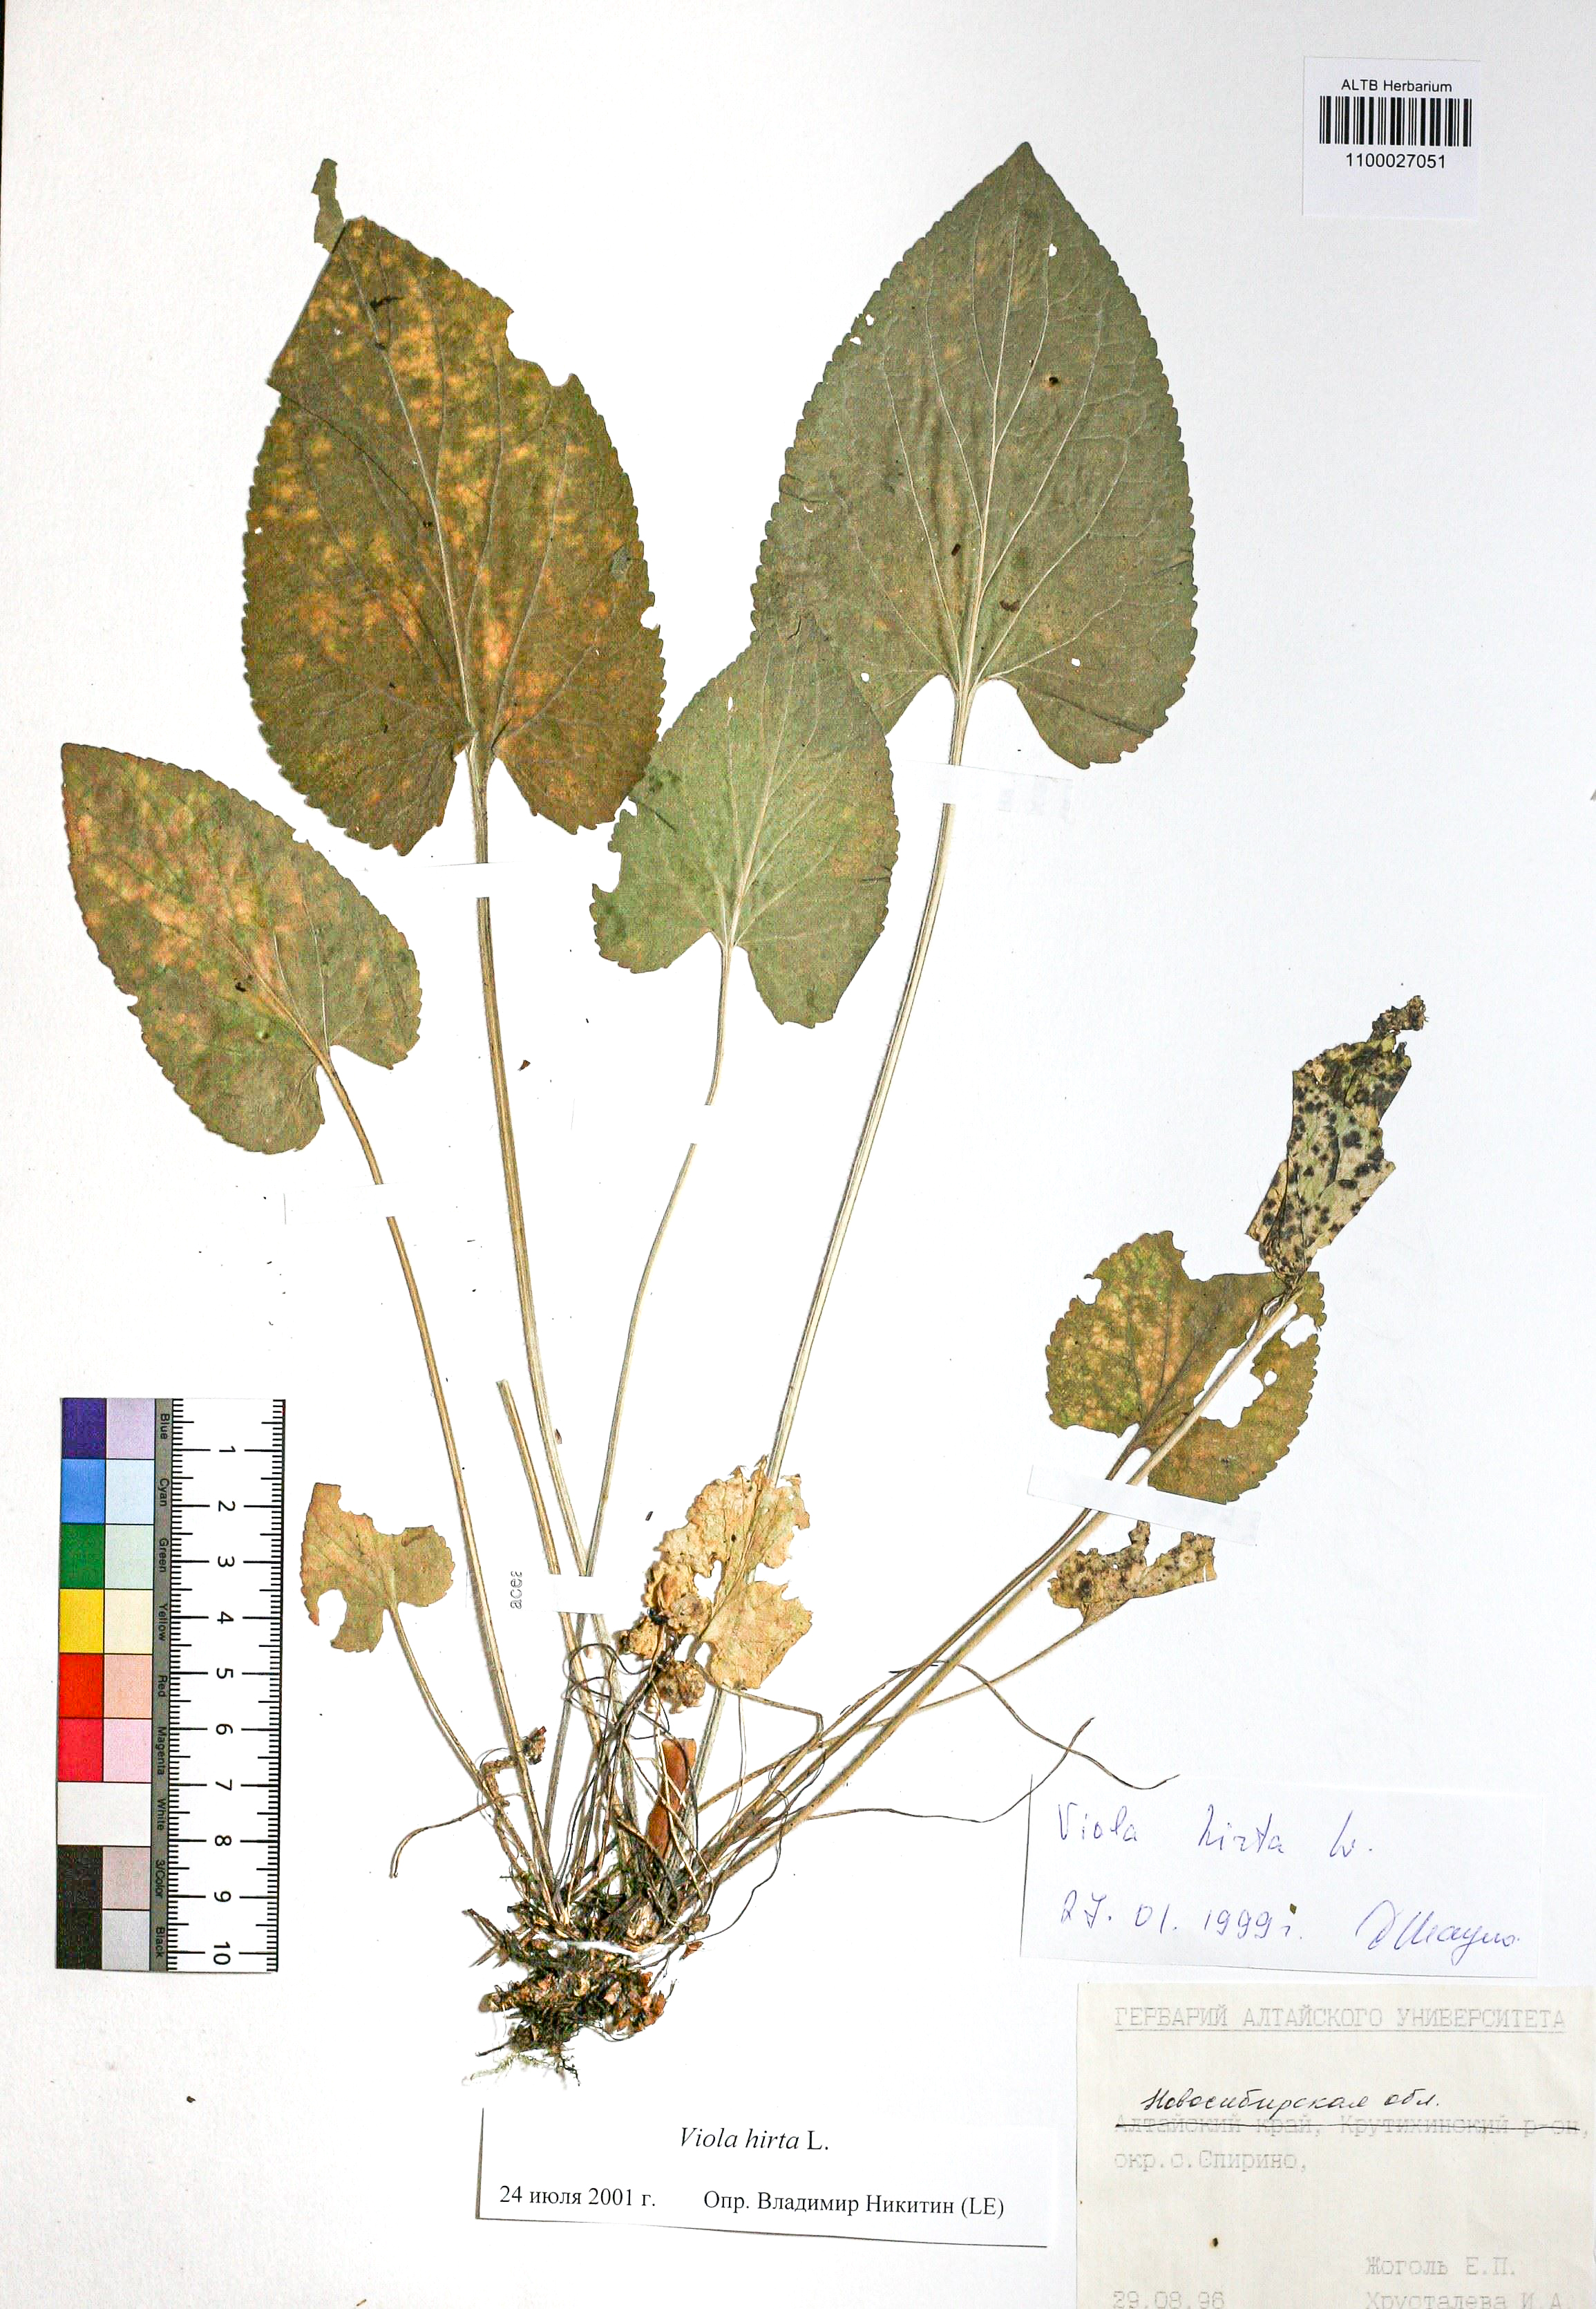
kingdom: Plantae
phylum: Tracheophyta
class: Magnoliopsida
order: Malpighiales
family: Violaceae
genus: Viola
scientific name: Viola hirta
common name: Hairy violet
